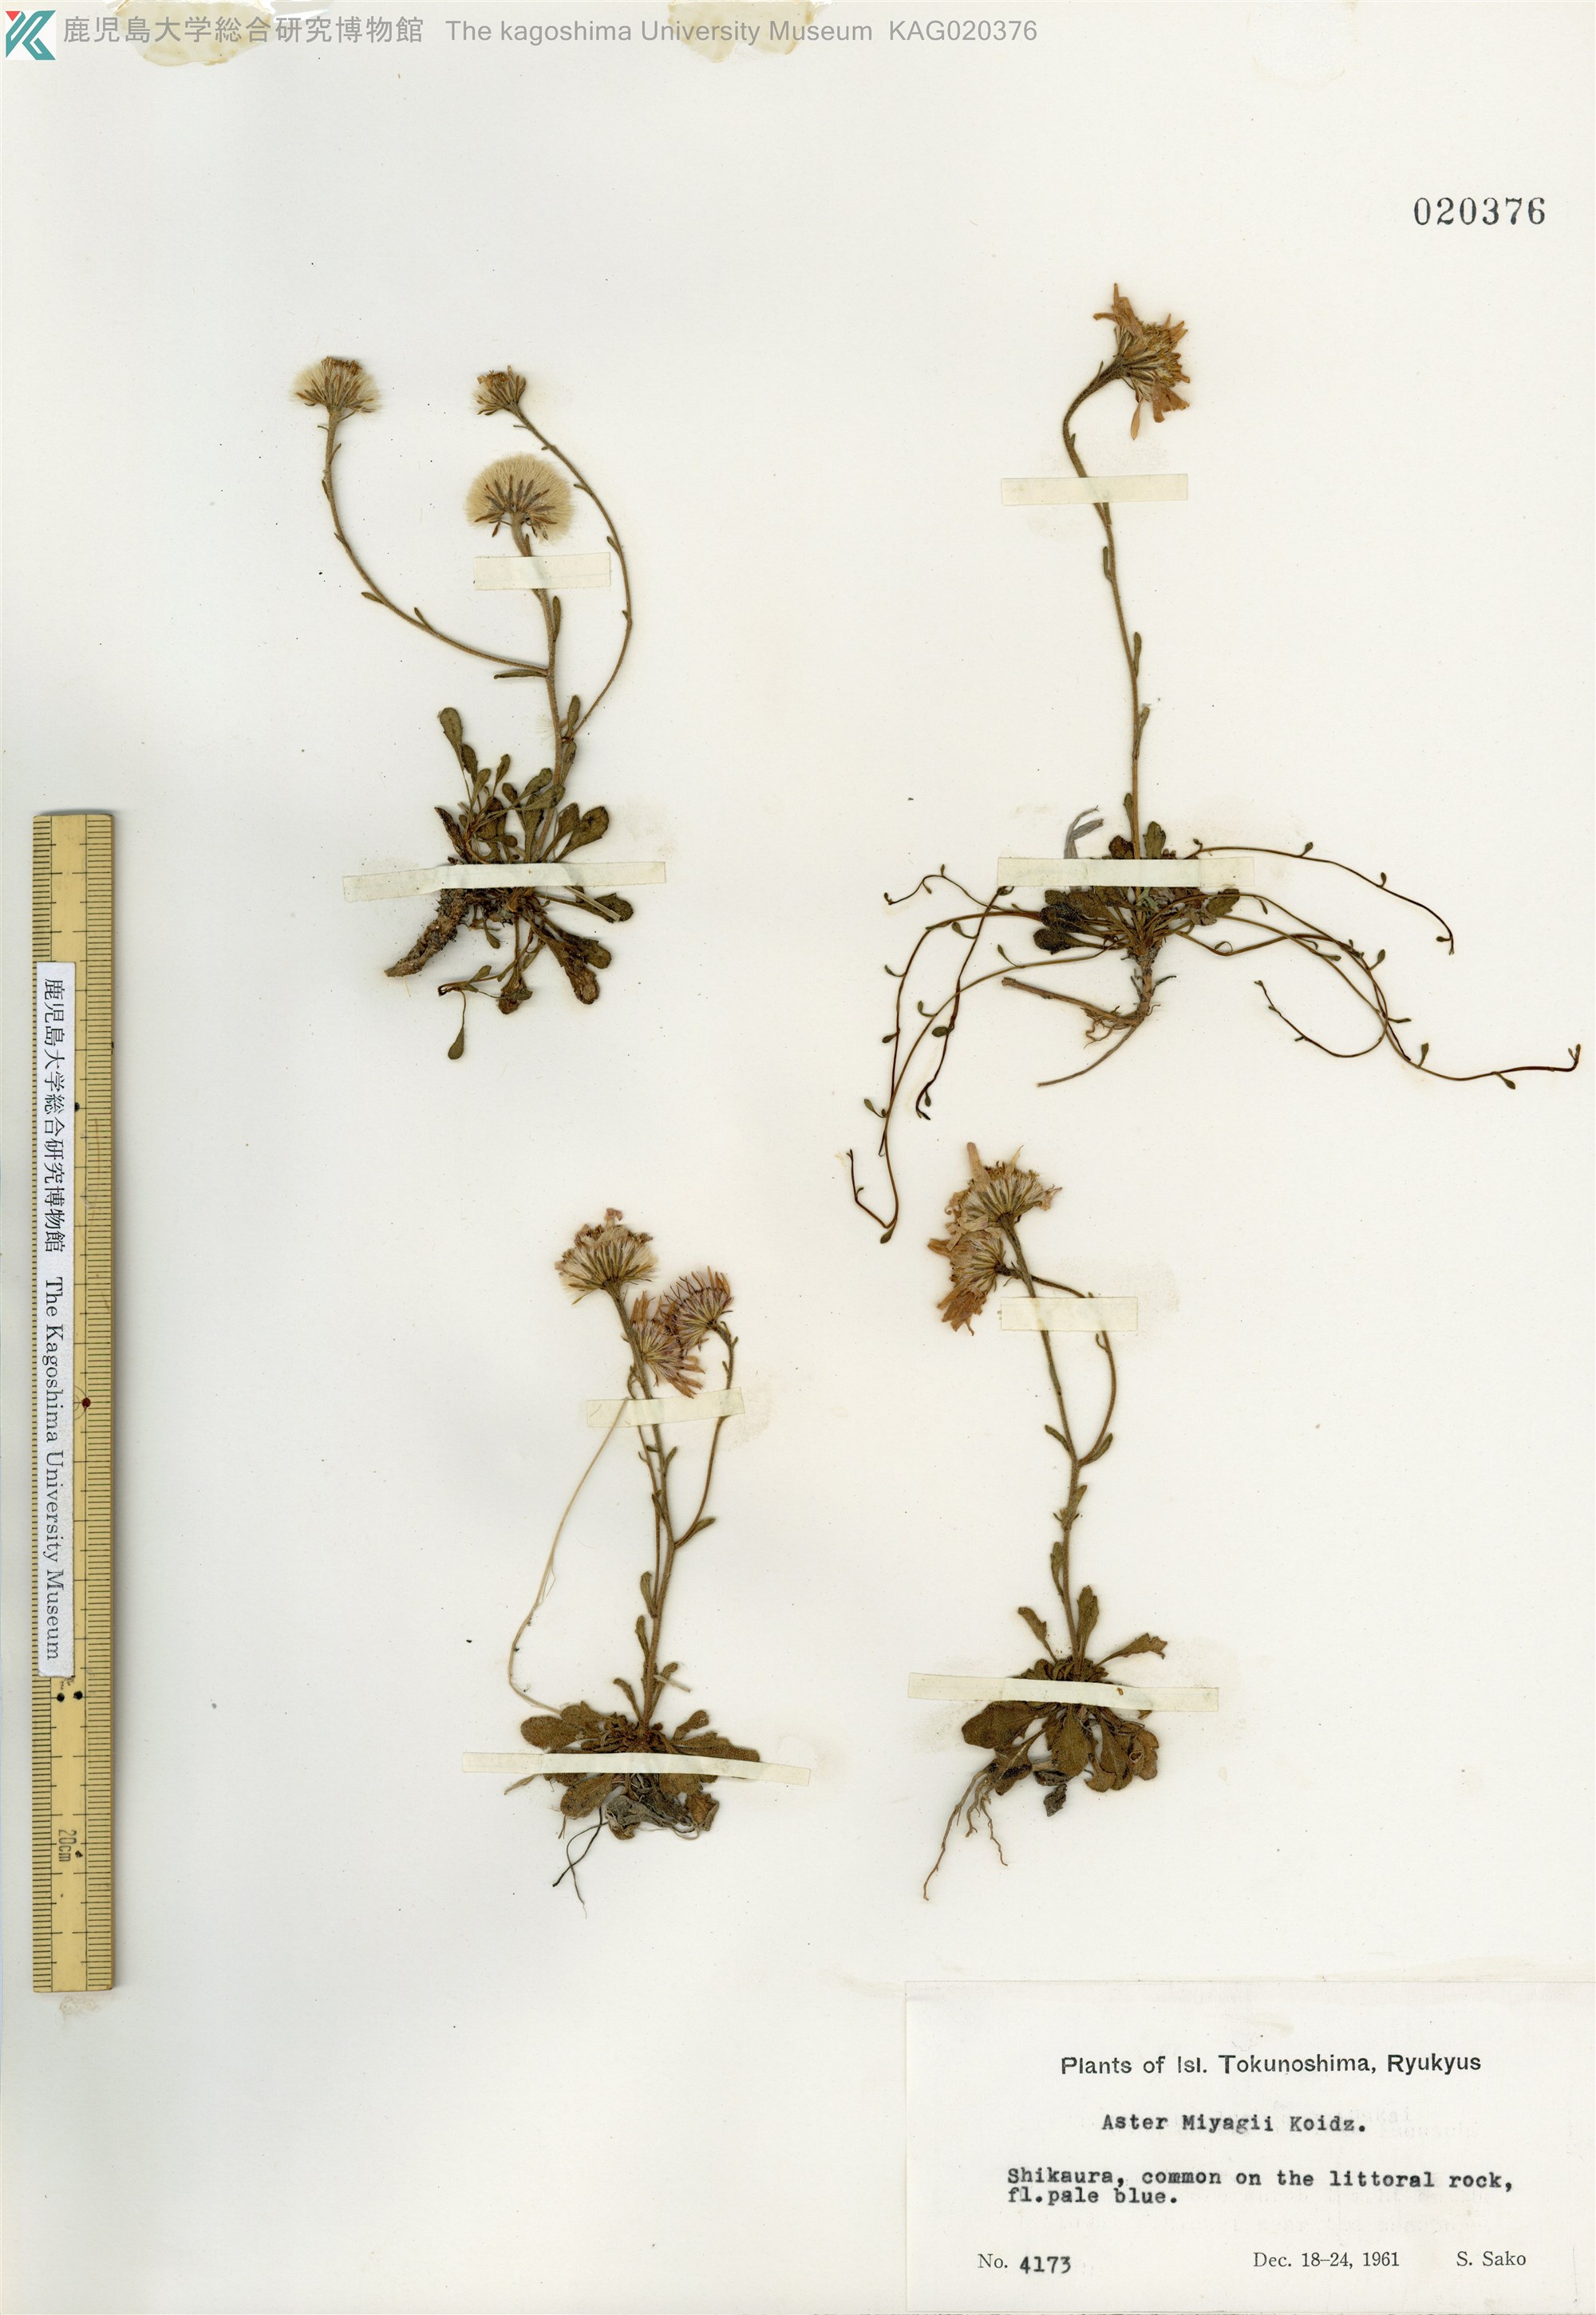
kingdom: Plantae
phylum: Tracheophyta
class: Magnoliopsida
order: Asterales
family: Asteraceae
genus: Aster
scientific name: Aster miyagii
